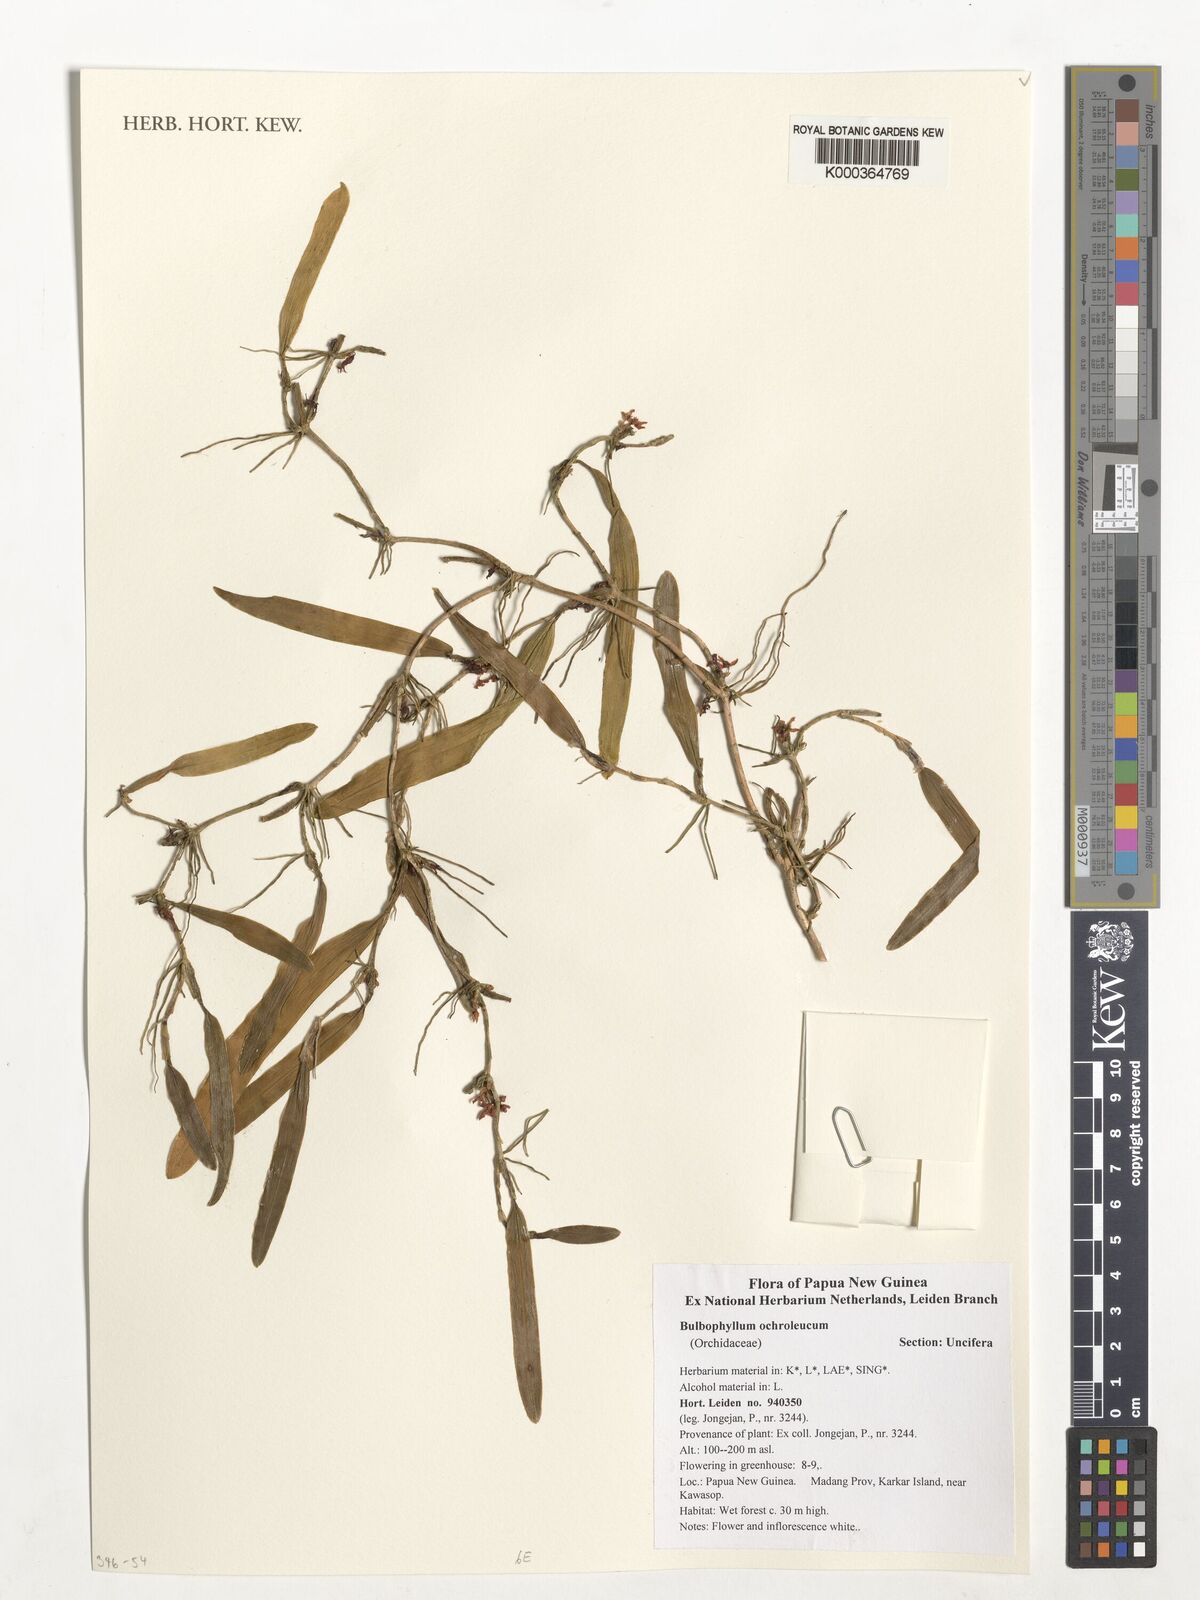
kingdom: Plantae
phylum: Tracheophyta
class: Liliopsida
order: Asparagales
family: Orchidaceae
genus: Bulbophyllum
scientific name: Bulbophyllum ochroleucum
